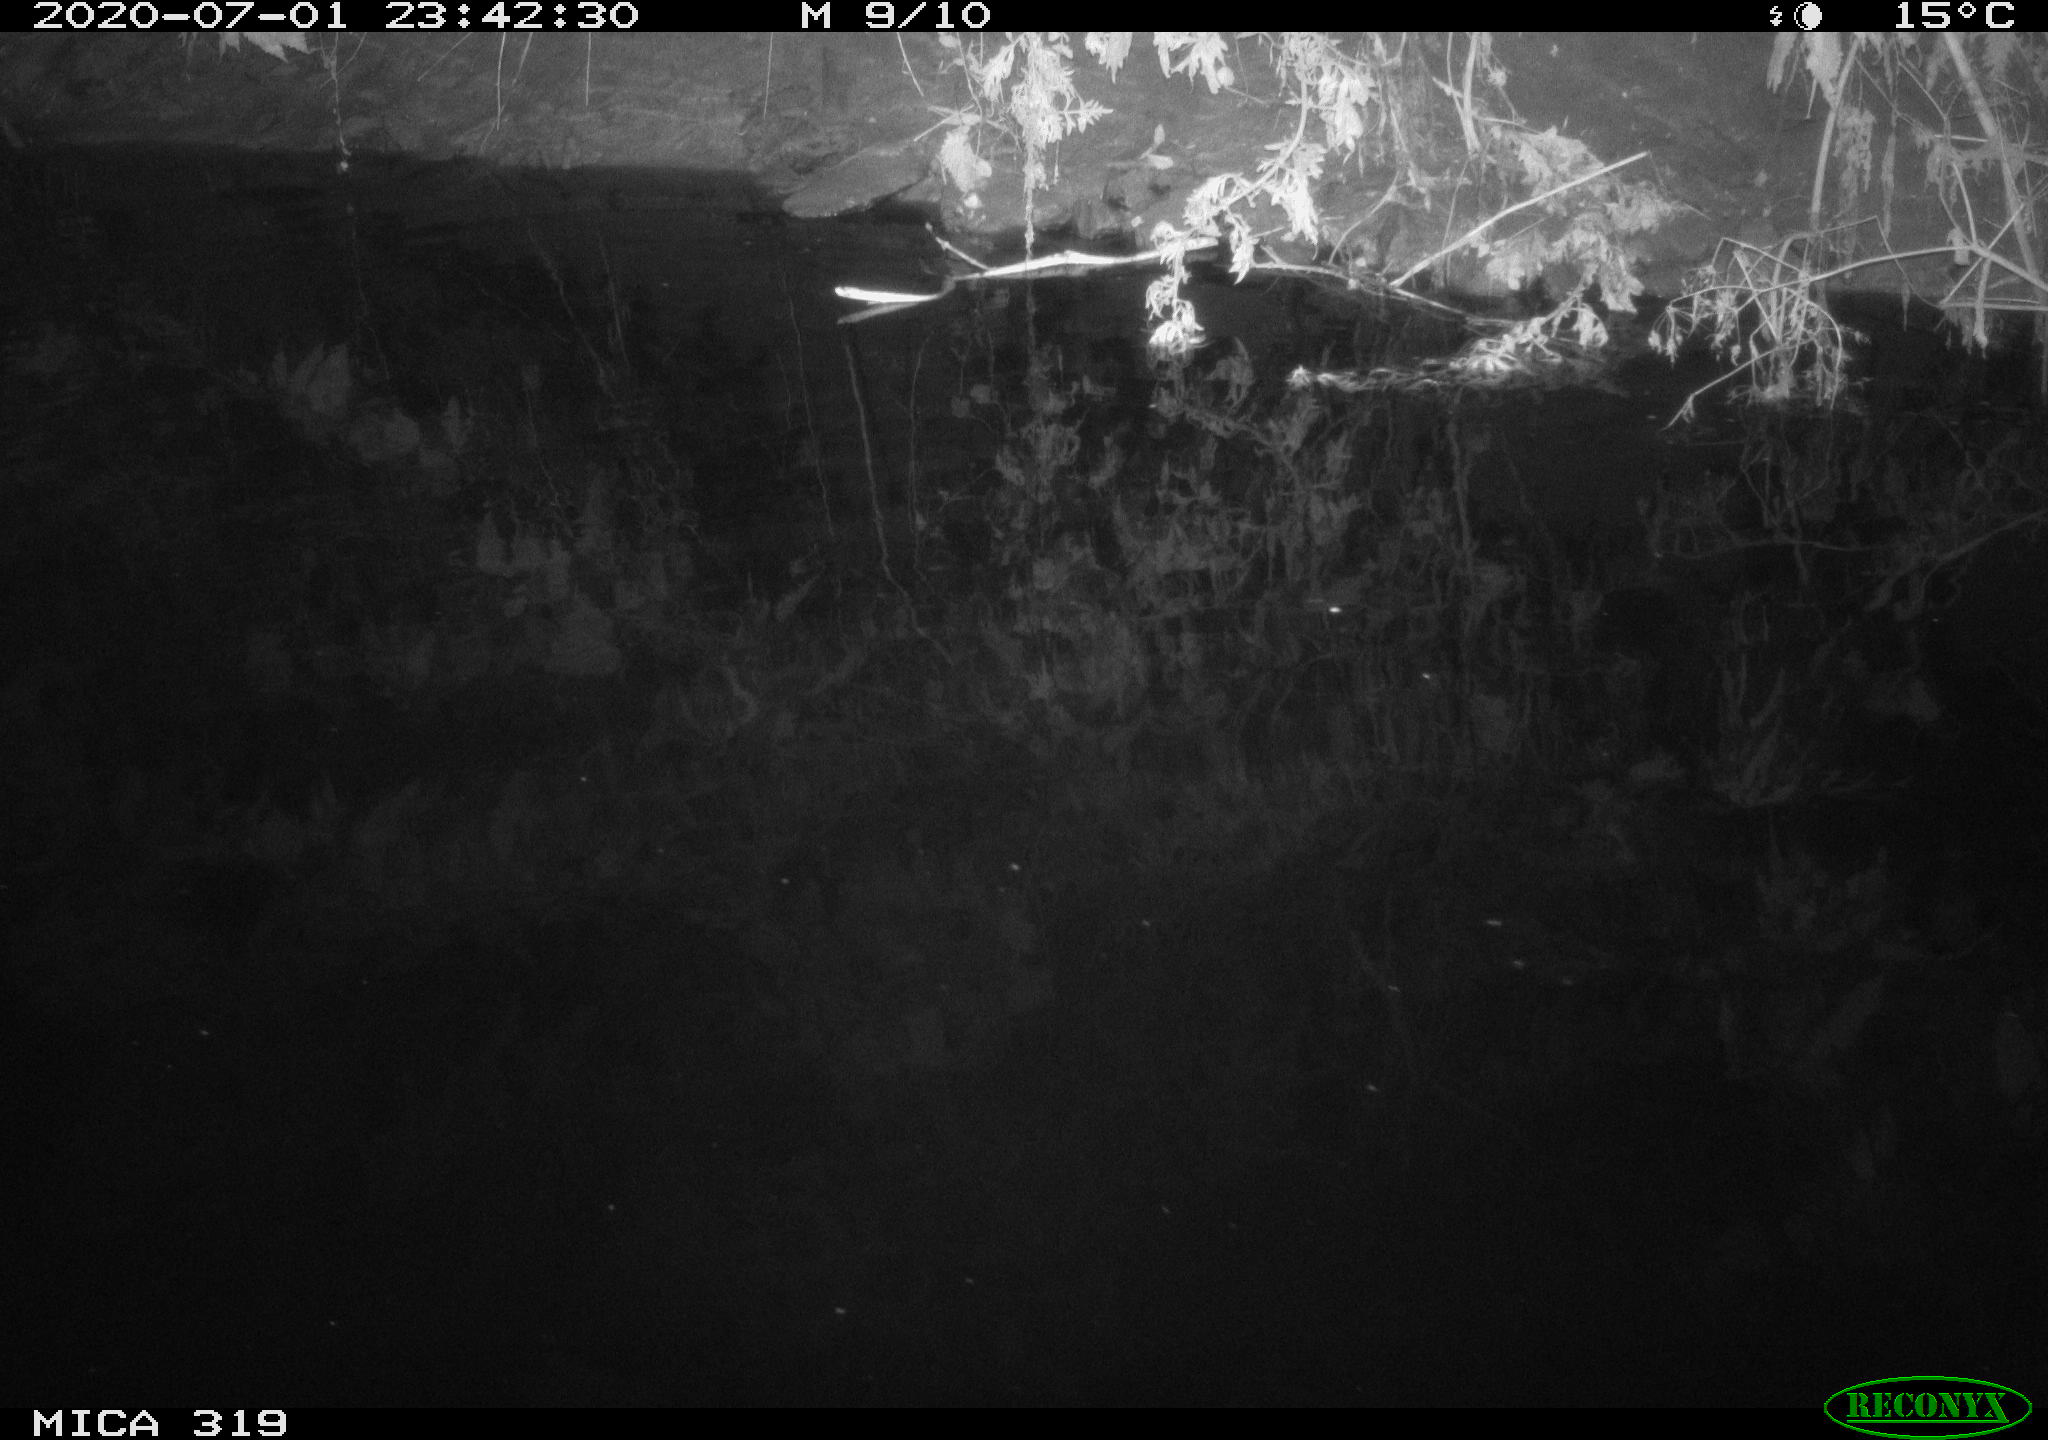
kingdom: Animalia
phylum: Chordata
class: Aves
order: Anseriformes
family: Anatidae
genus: Anas
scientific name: Anas platyrhynchos
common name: Mallard
